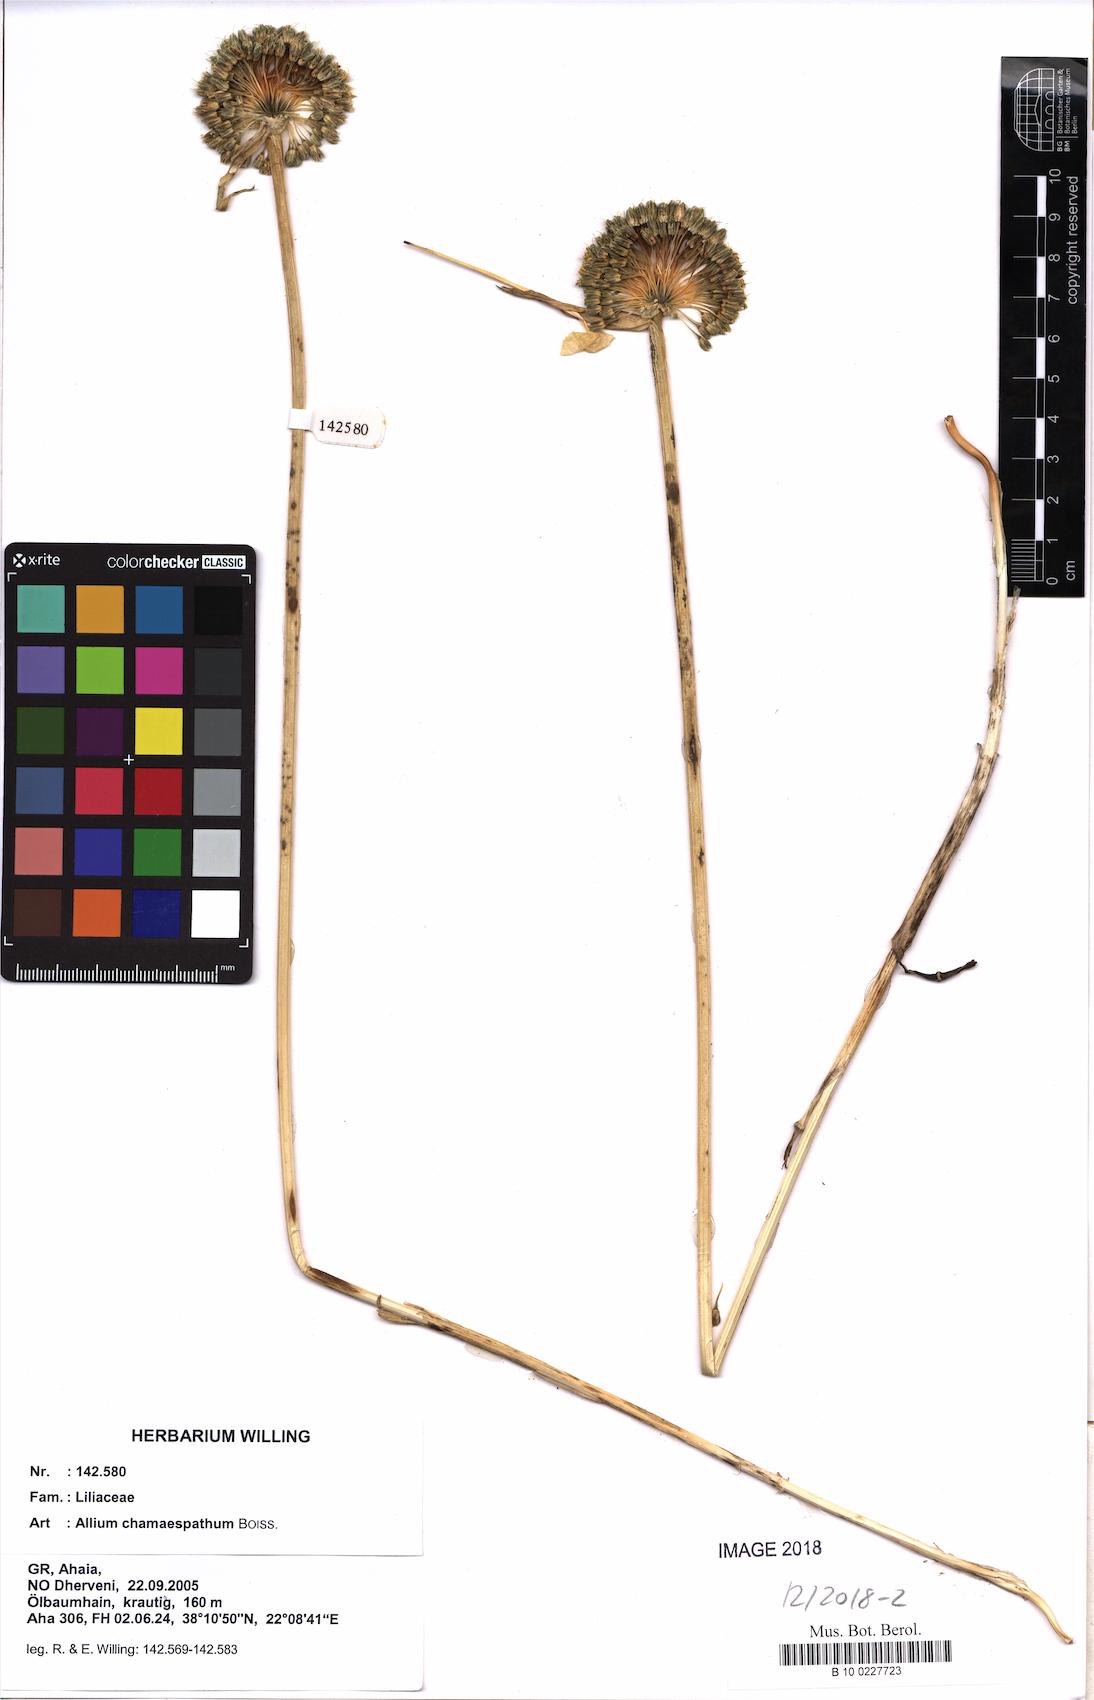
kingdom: Plantae
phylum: Tracheophyta
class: Liliopsida
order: Asparagales
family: Amaryllidaceae
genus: Allium
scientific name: Allium chamaespathum
